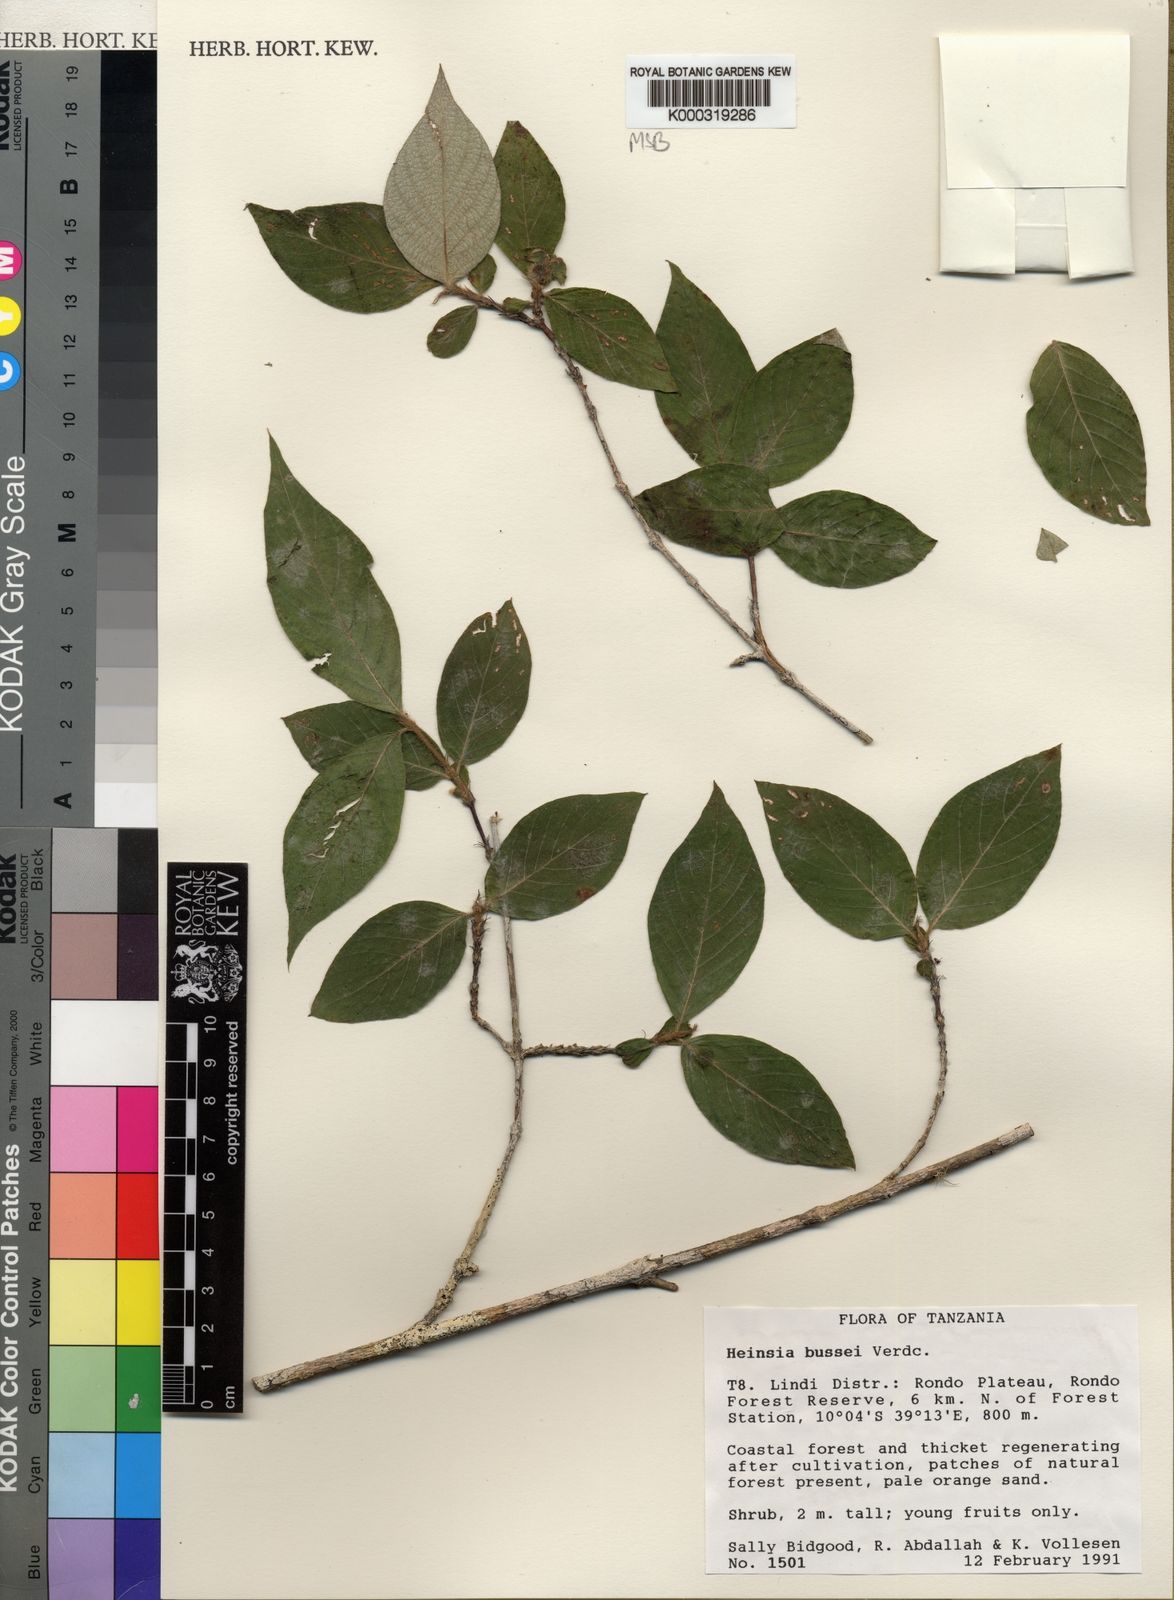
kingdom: Plantae
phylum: Tracheophyta
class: Magnoliopsida
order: Gentianales
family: Rubiaceae
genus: Heinsia
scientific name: Heinsia bussei
